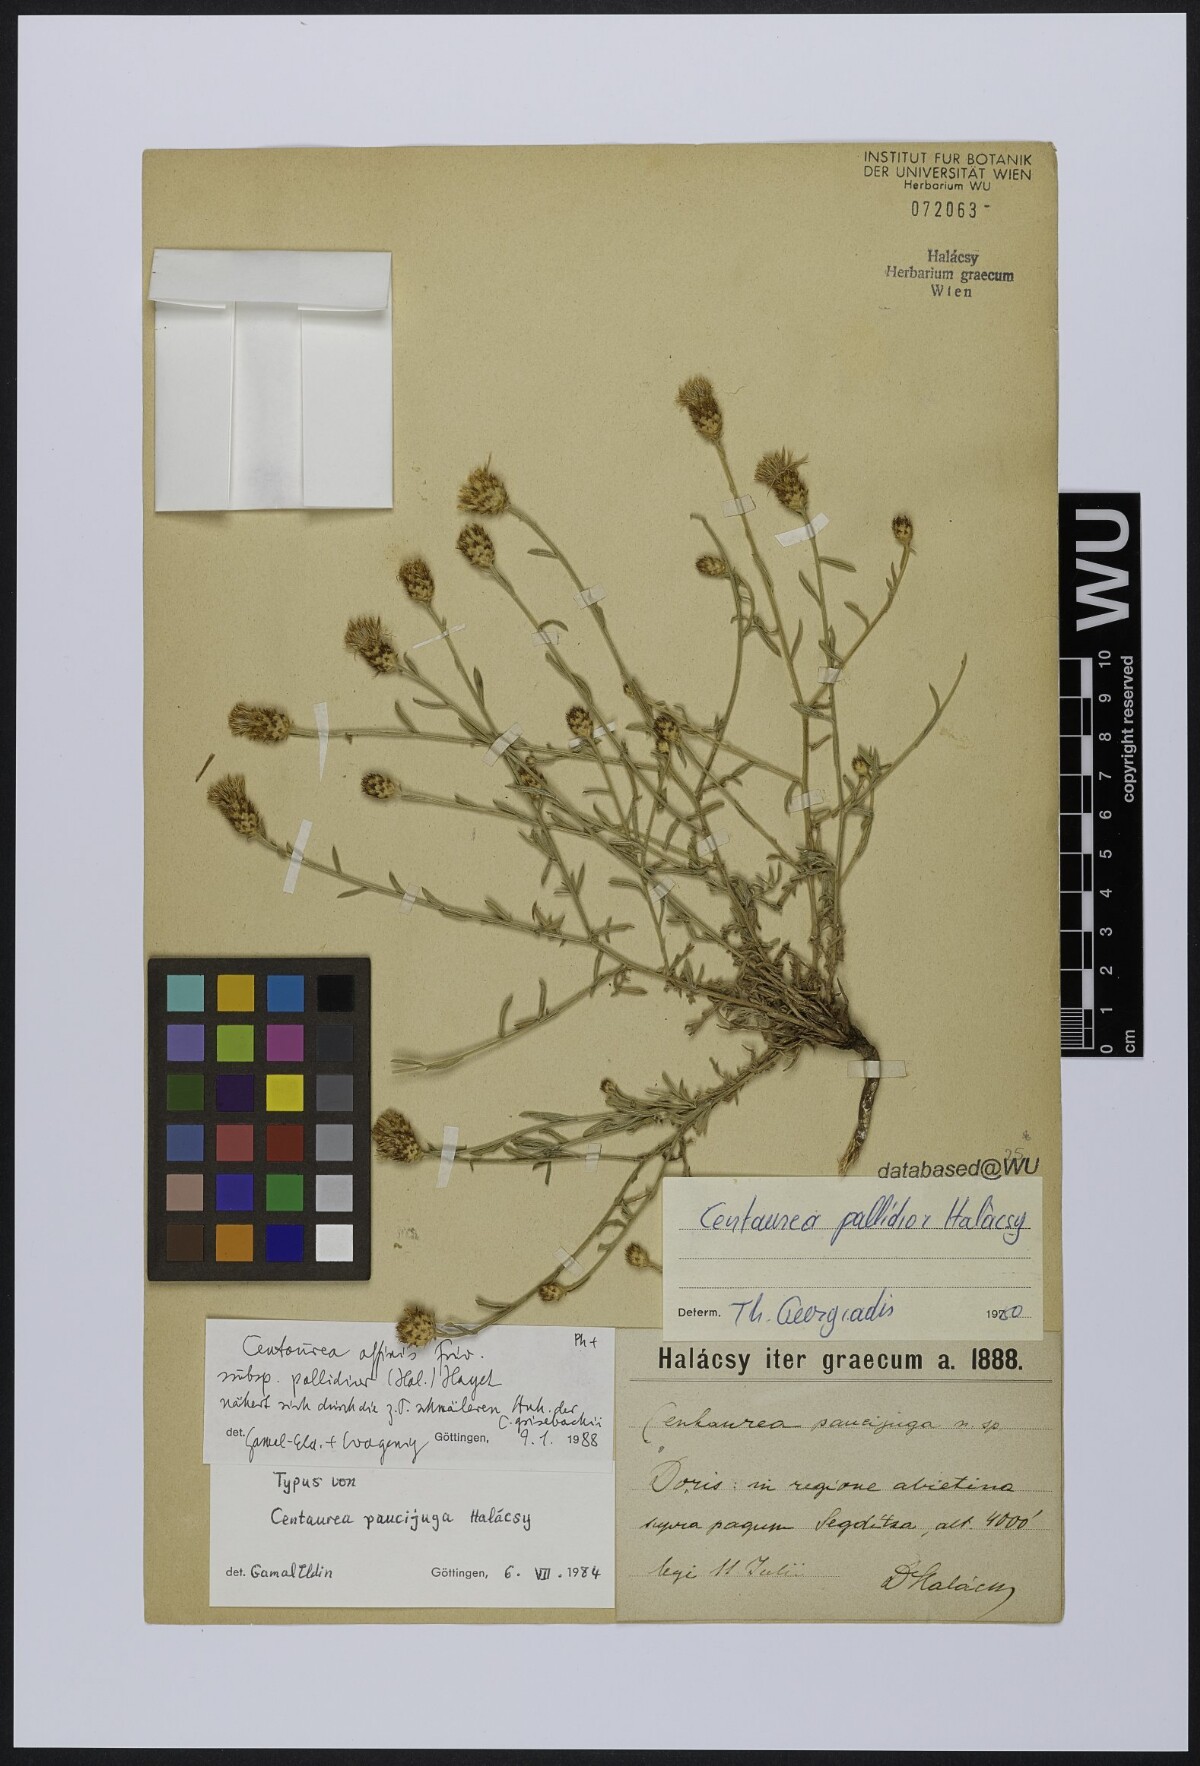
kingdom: Plantae
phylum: Tracheophyta
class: Magnoliopsida
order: Asterales
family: Asteraceae
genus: Centaurea
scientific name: Centaurea affinis
